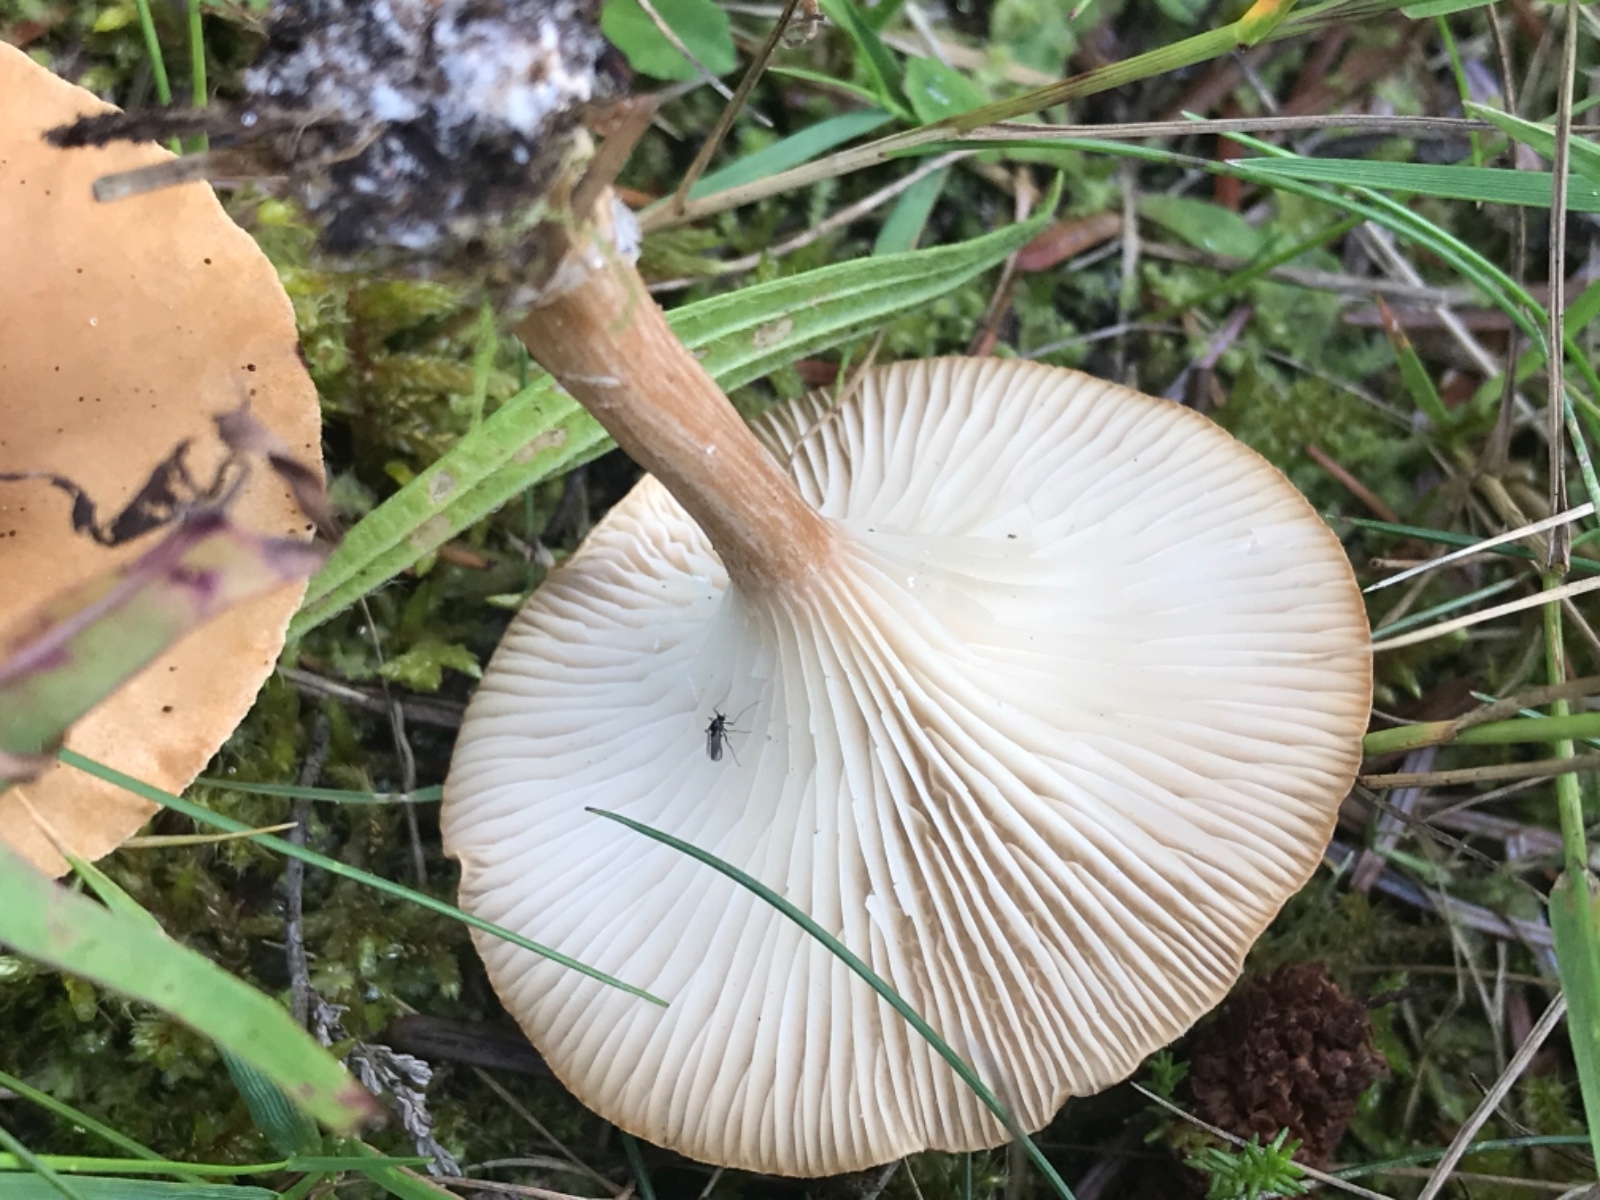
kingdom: Fungi
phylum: Basidiomycota
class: Agaricomycetes
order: Agaricales
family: Tricholomataceae
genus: Clitocybe
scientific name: Clitocybe costata
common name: brunstokket tragthat
